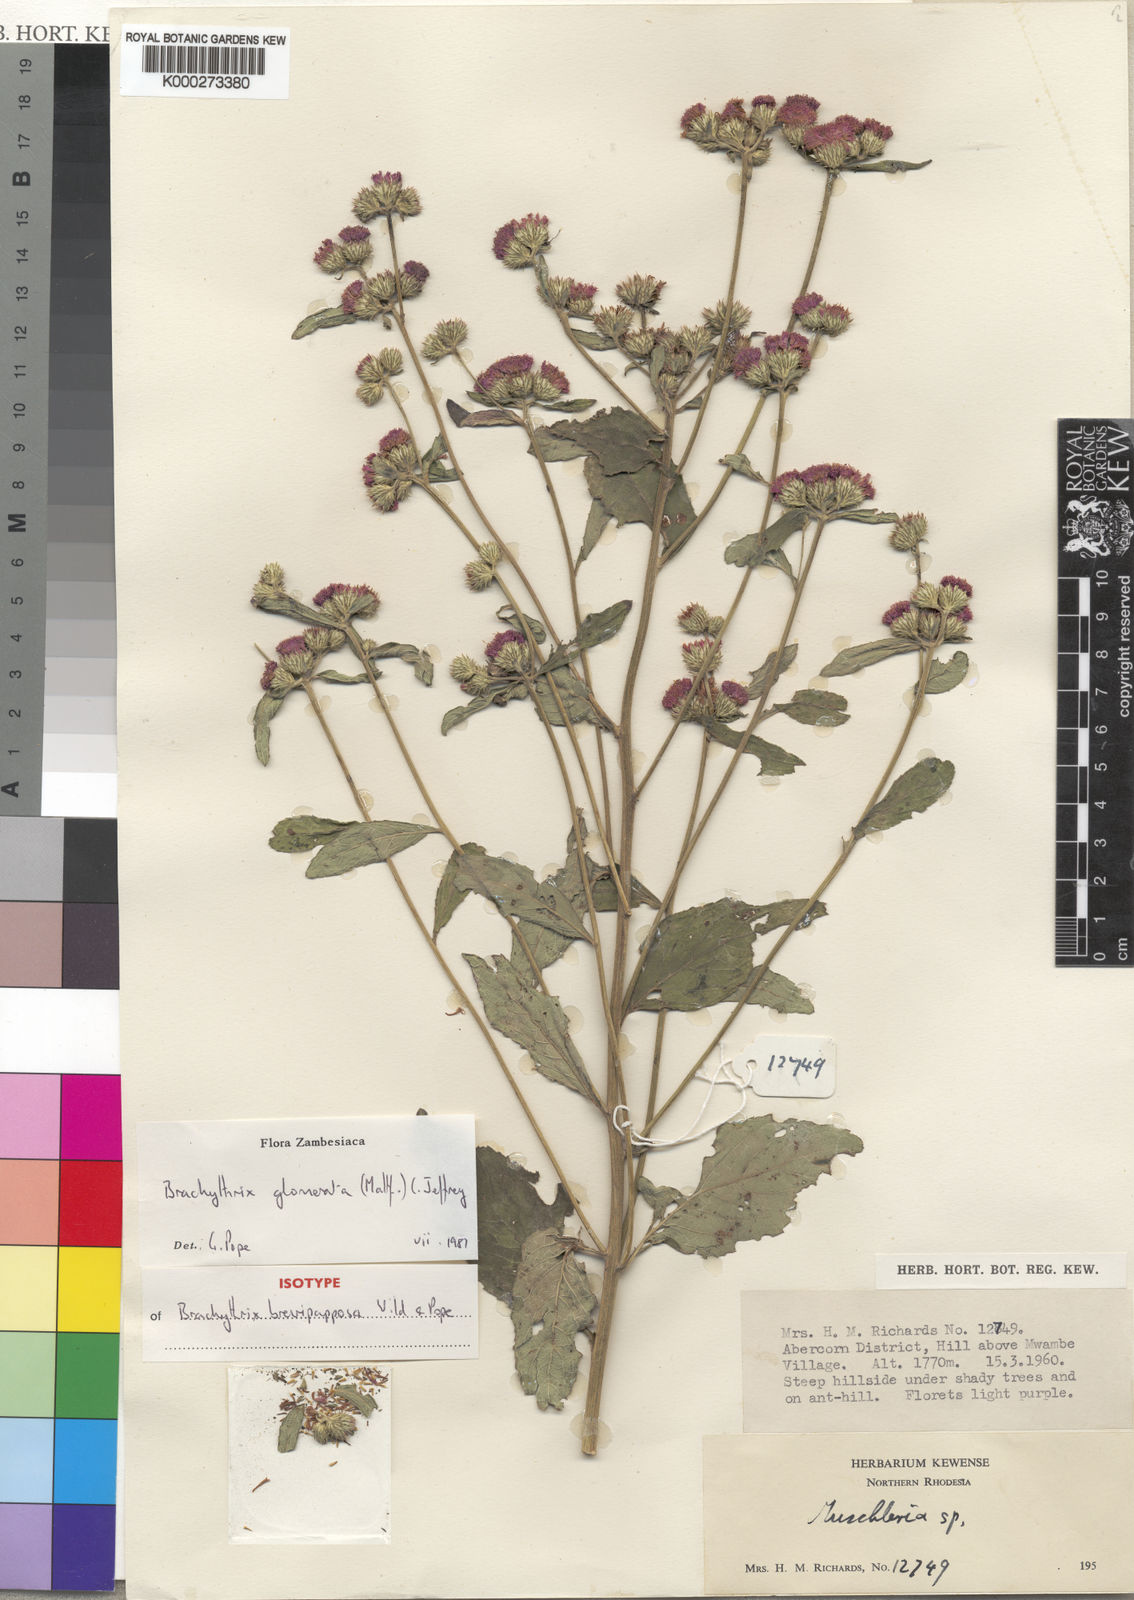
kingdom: Plantae
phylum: Tracheophyta
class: Magnoliopsida
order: Asterales
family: Asteraceae
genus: Brachythrix
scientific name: Brachythrix glomerata
